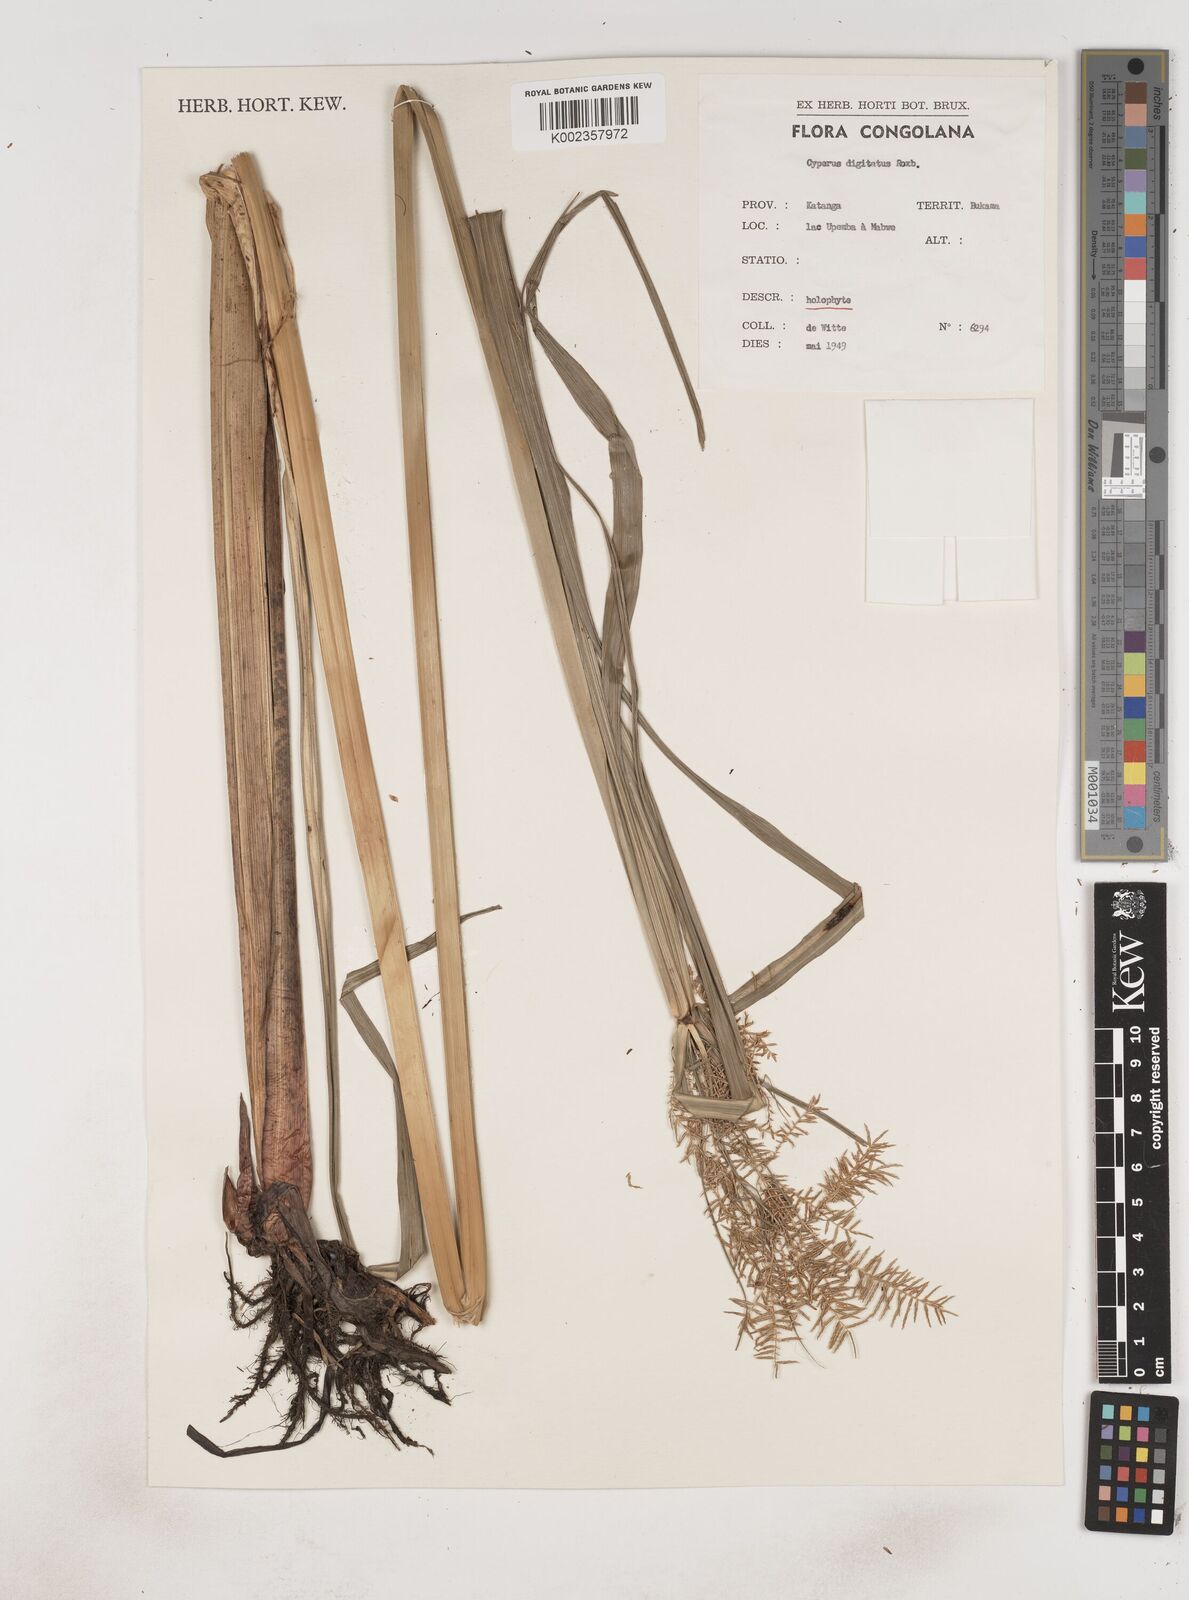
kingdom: Plantae
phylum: Tracheophyta
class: Liliopsida
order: Poales
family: Cyperaceae
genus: Cyperus
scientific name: Cyperus digitatus
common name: Finger flatsedge
